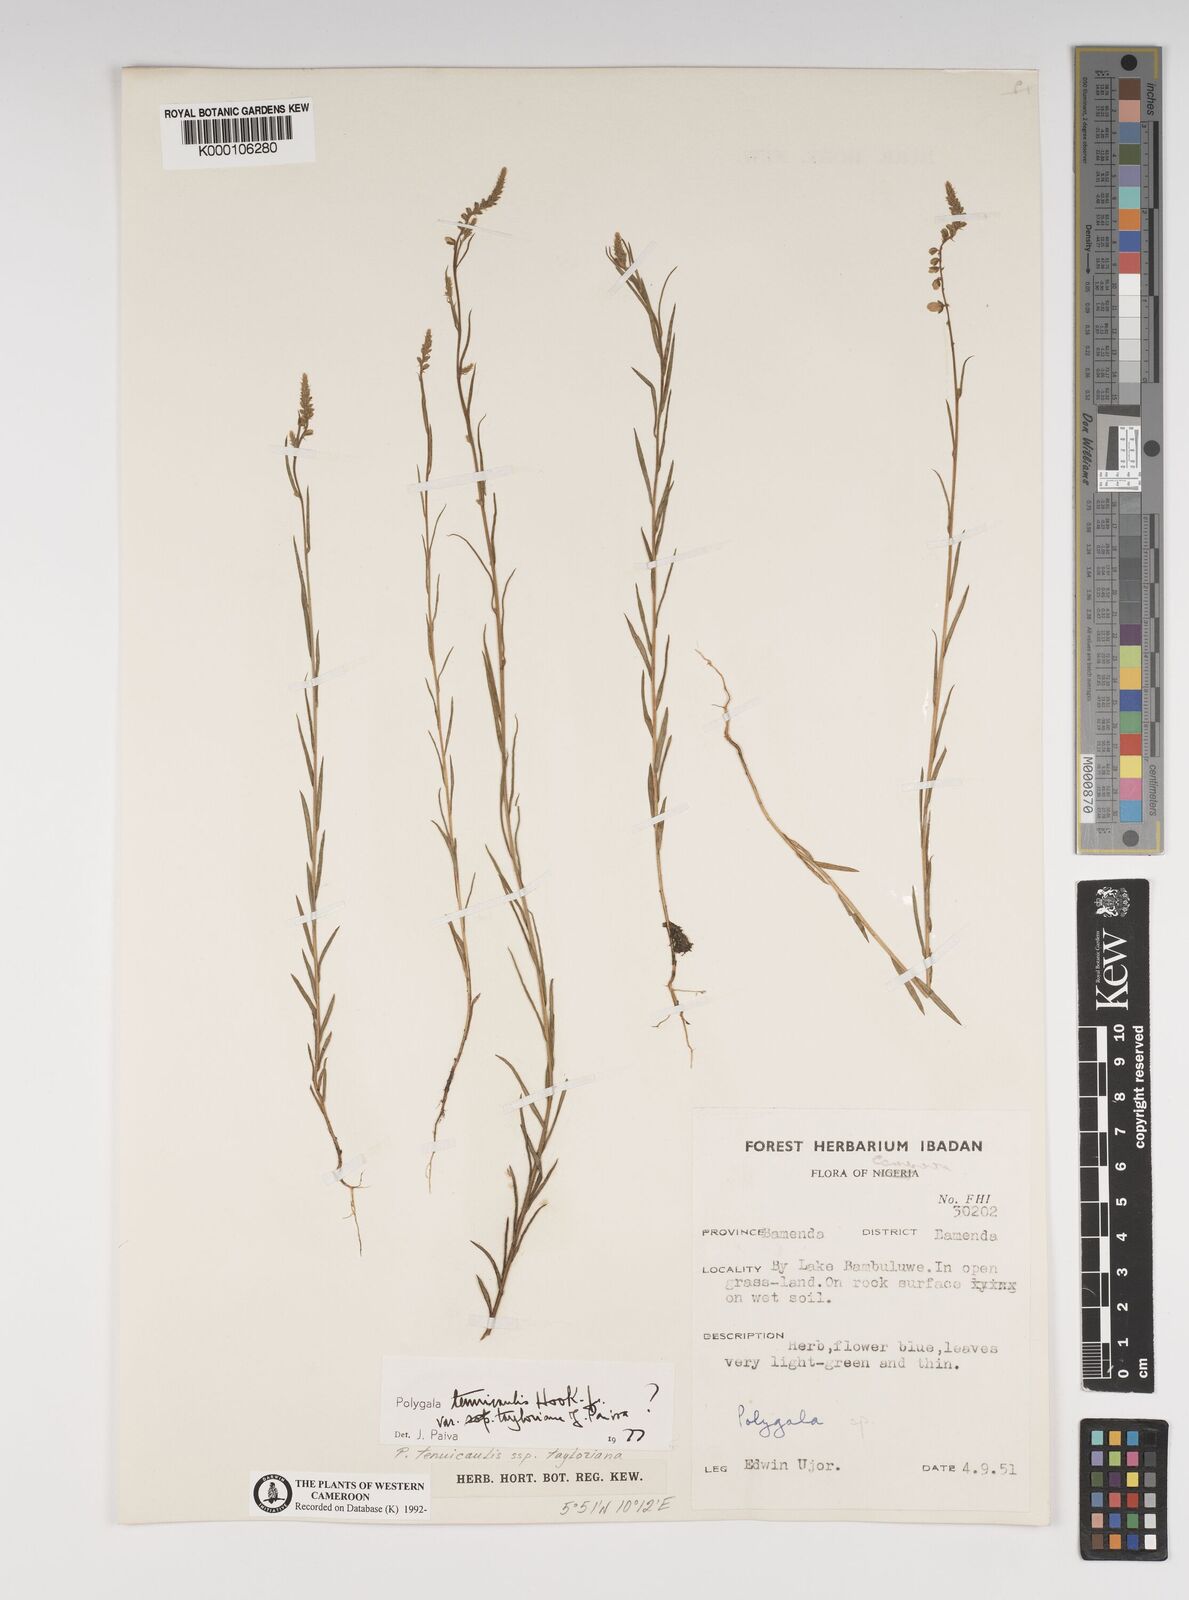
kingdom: Plantae
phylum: Tracheophyta
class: Magnoliopsida
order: Fabales
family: Polygalaceae
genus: Polygala
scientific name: Polygala tenuicaulis
